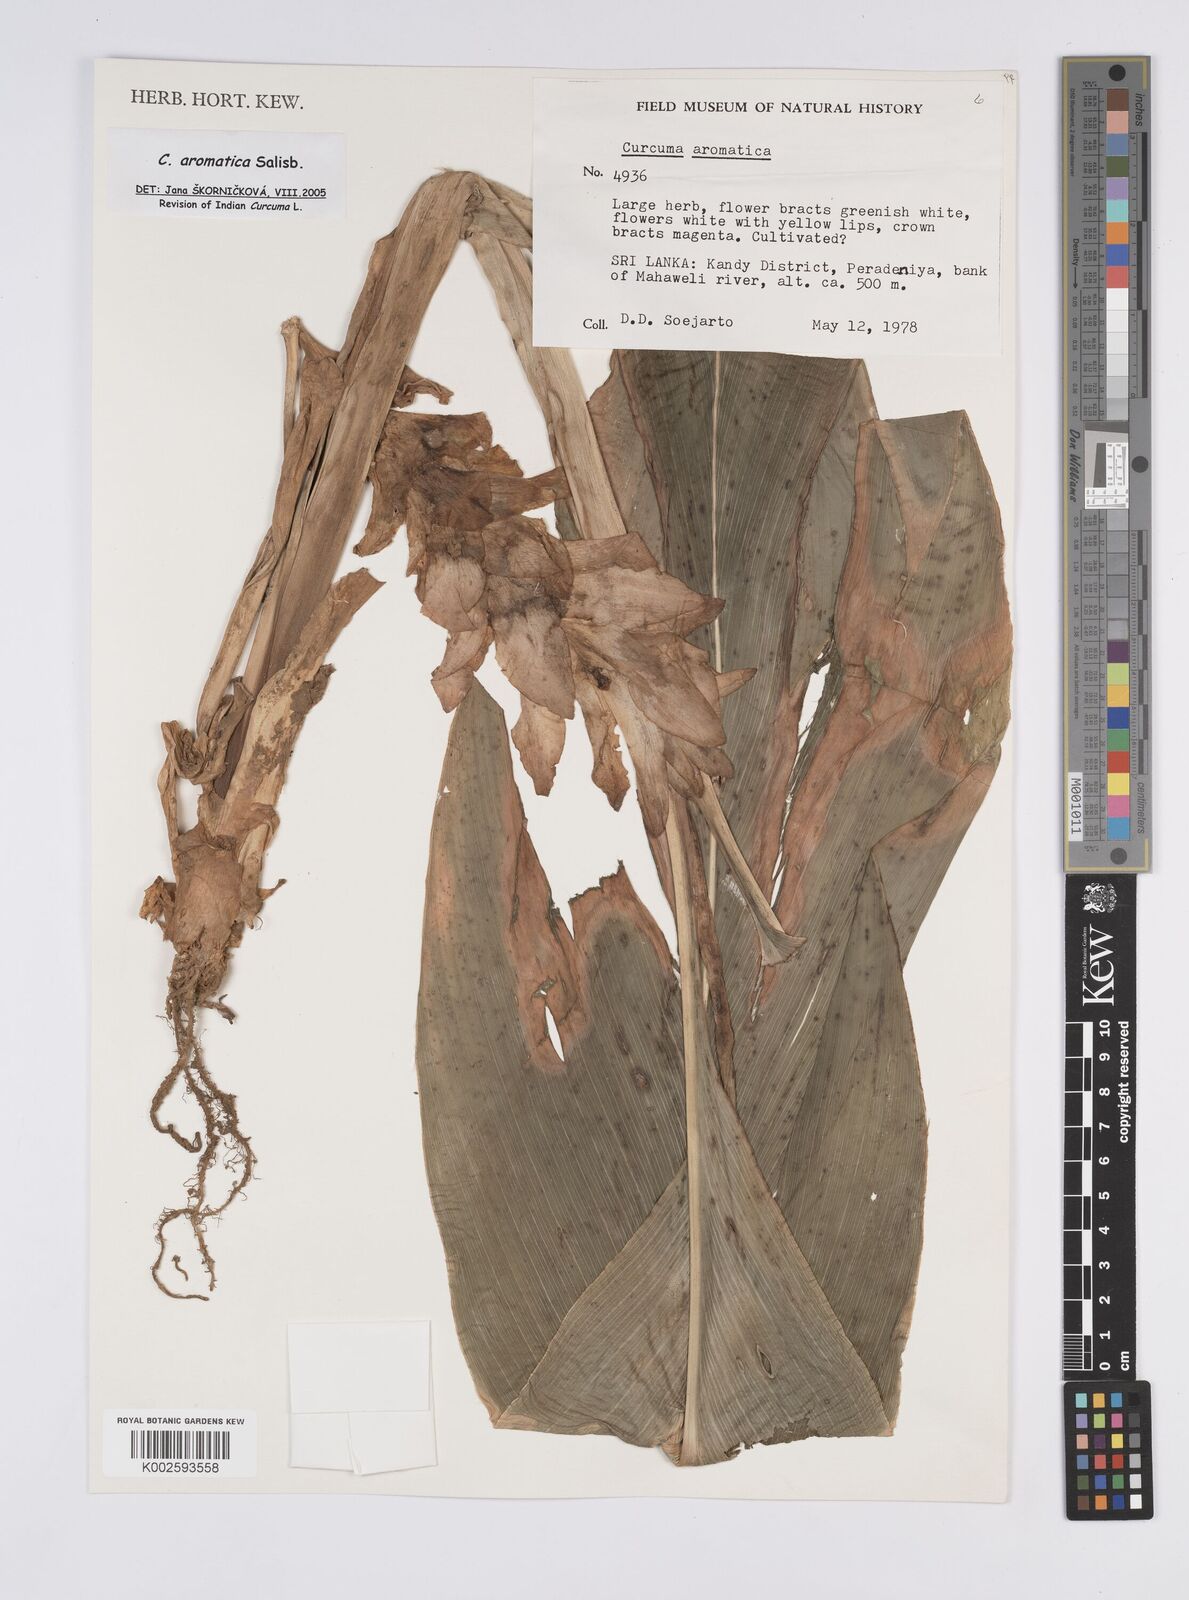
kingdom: Plantae
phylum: Tracheophyta
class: Liliopsida
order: Zingiberales
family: Zingiberaceae
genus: Curcuma
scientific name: Curcuma aromatica
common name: Wild turmeric
